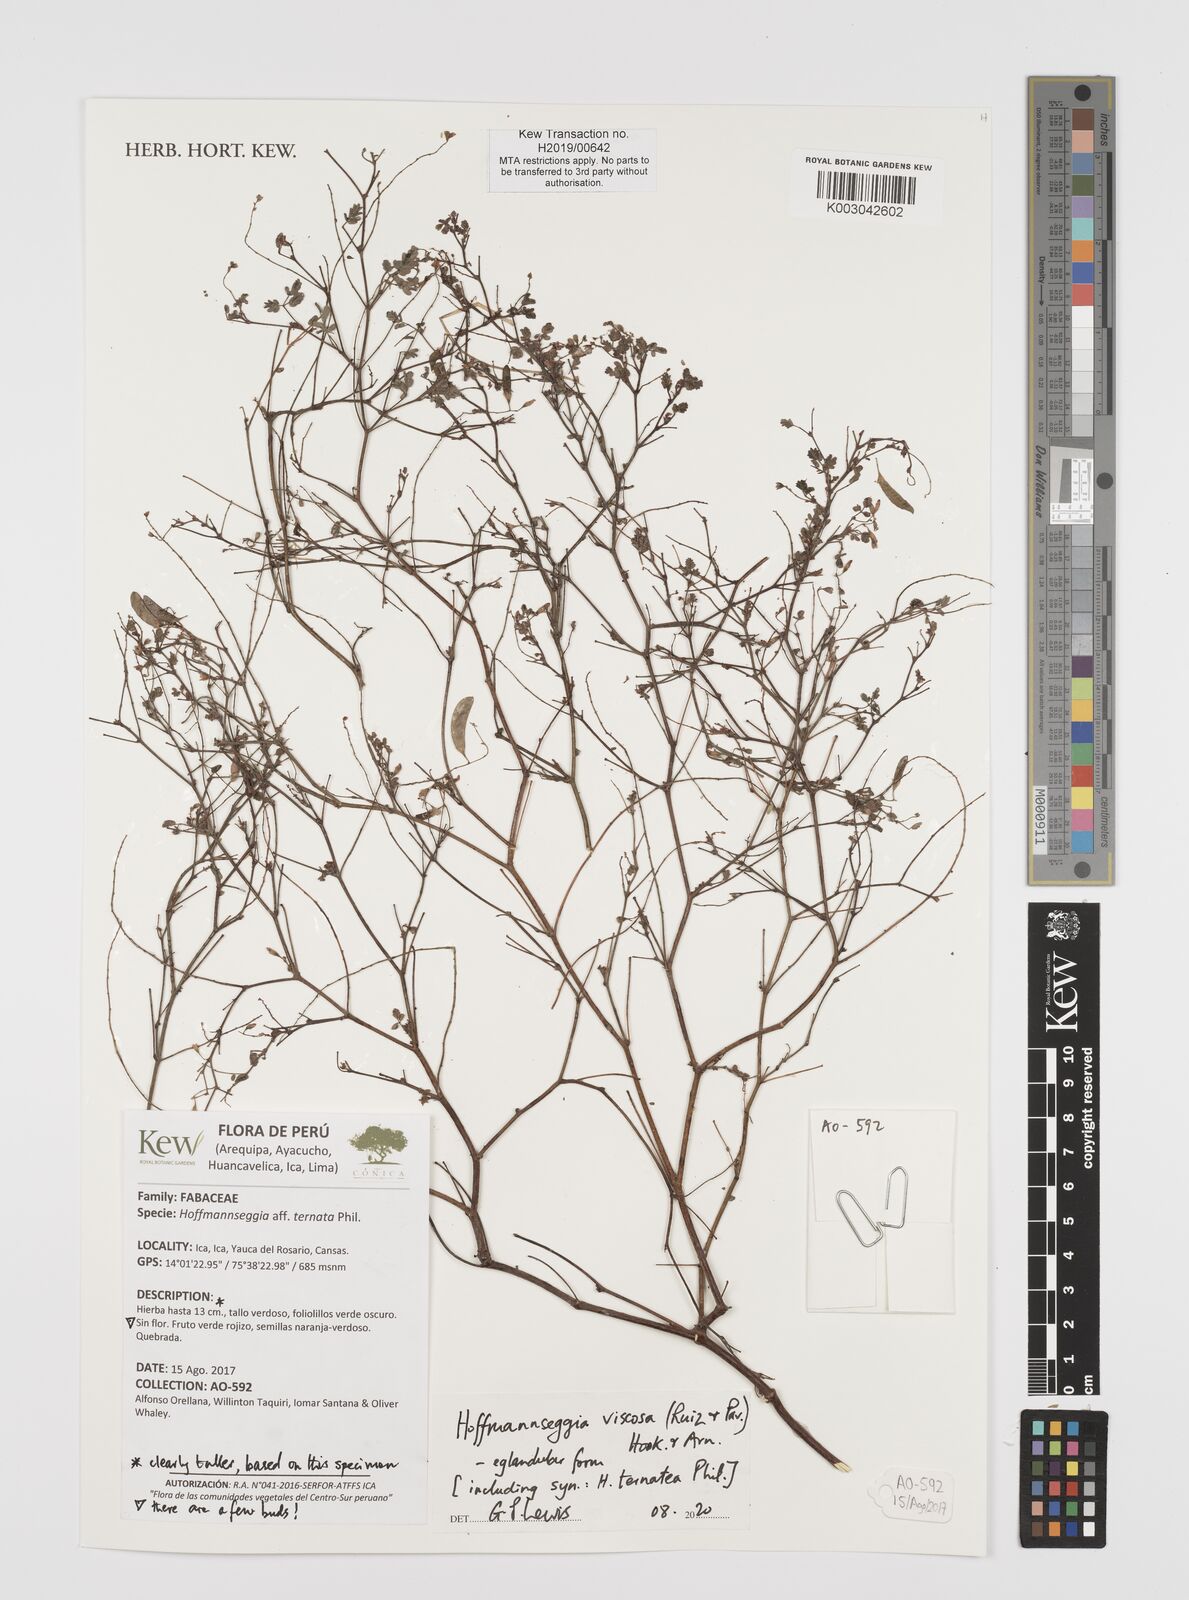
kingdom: Plantae
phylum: Tracheophyta
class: Magnoliopsida
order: Fabales
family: Fabaceae
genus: Hoffmannseggia
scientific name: Hoffmannseggia viscosa
